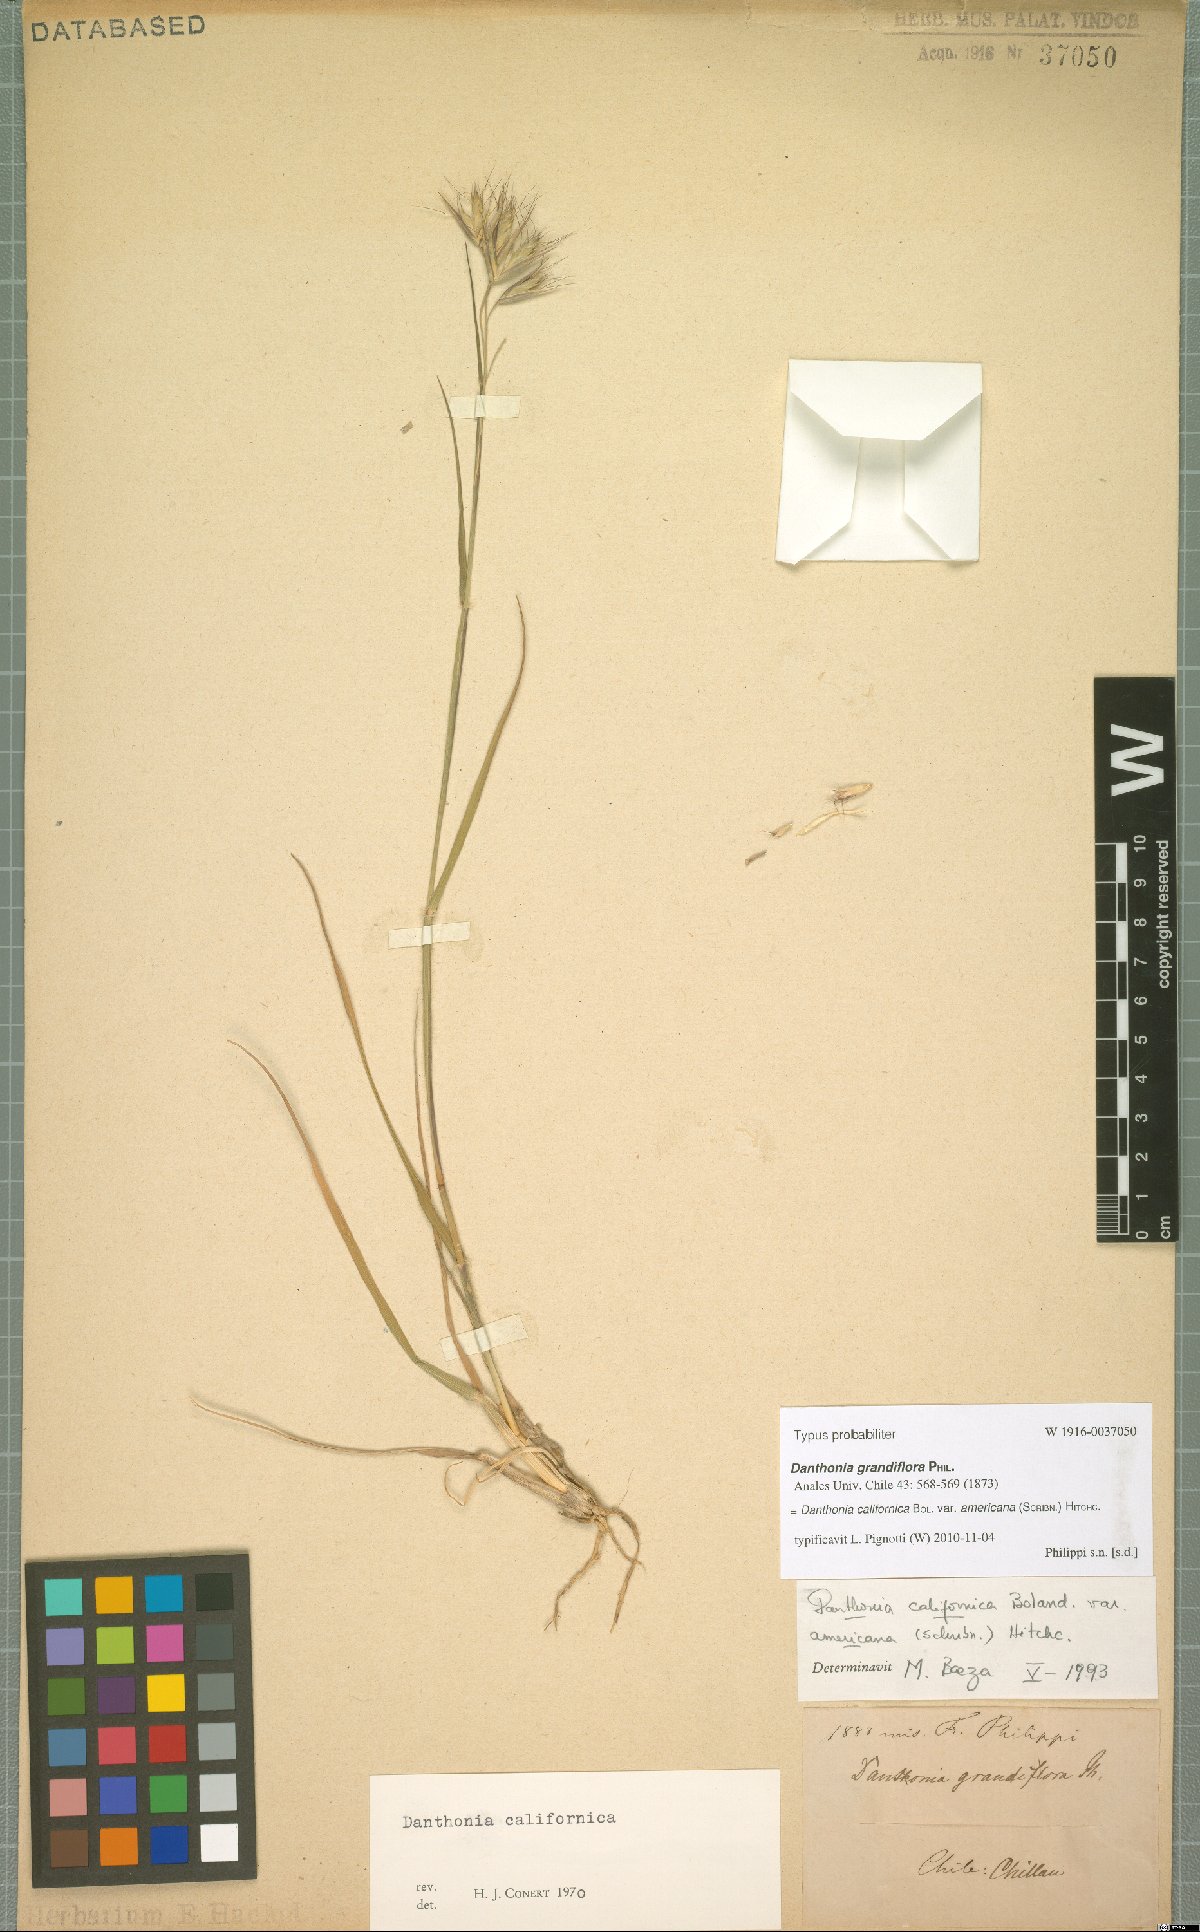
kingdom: Plantae
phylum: Tracheophyta
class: Liliopsida
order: Poales
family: Poaceae
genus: Danthonia
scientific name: Danthonia californica
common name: California oat grass
